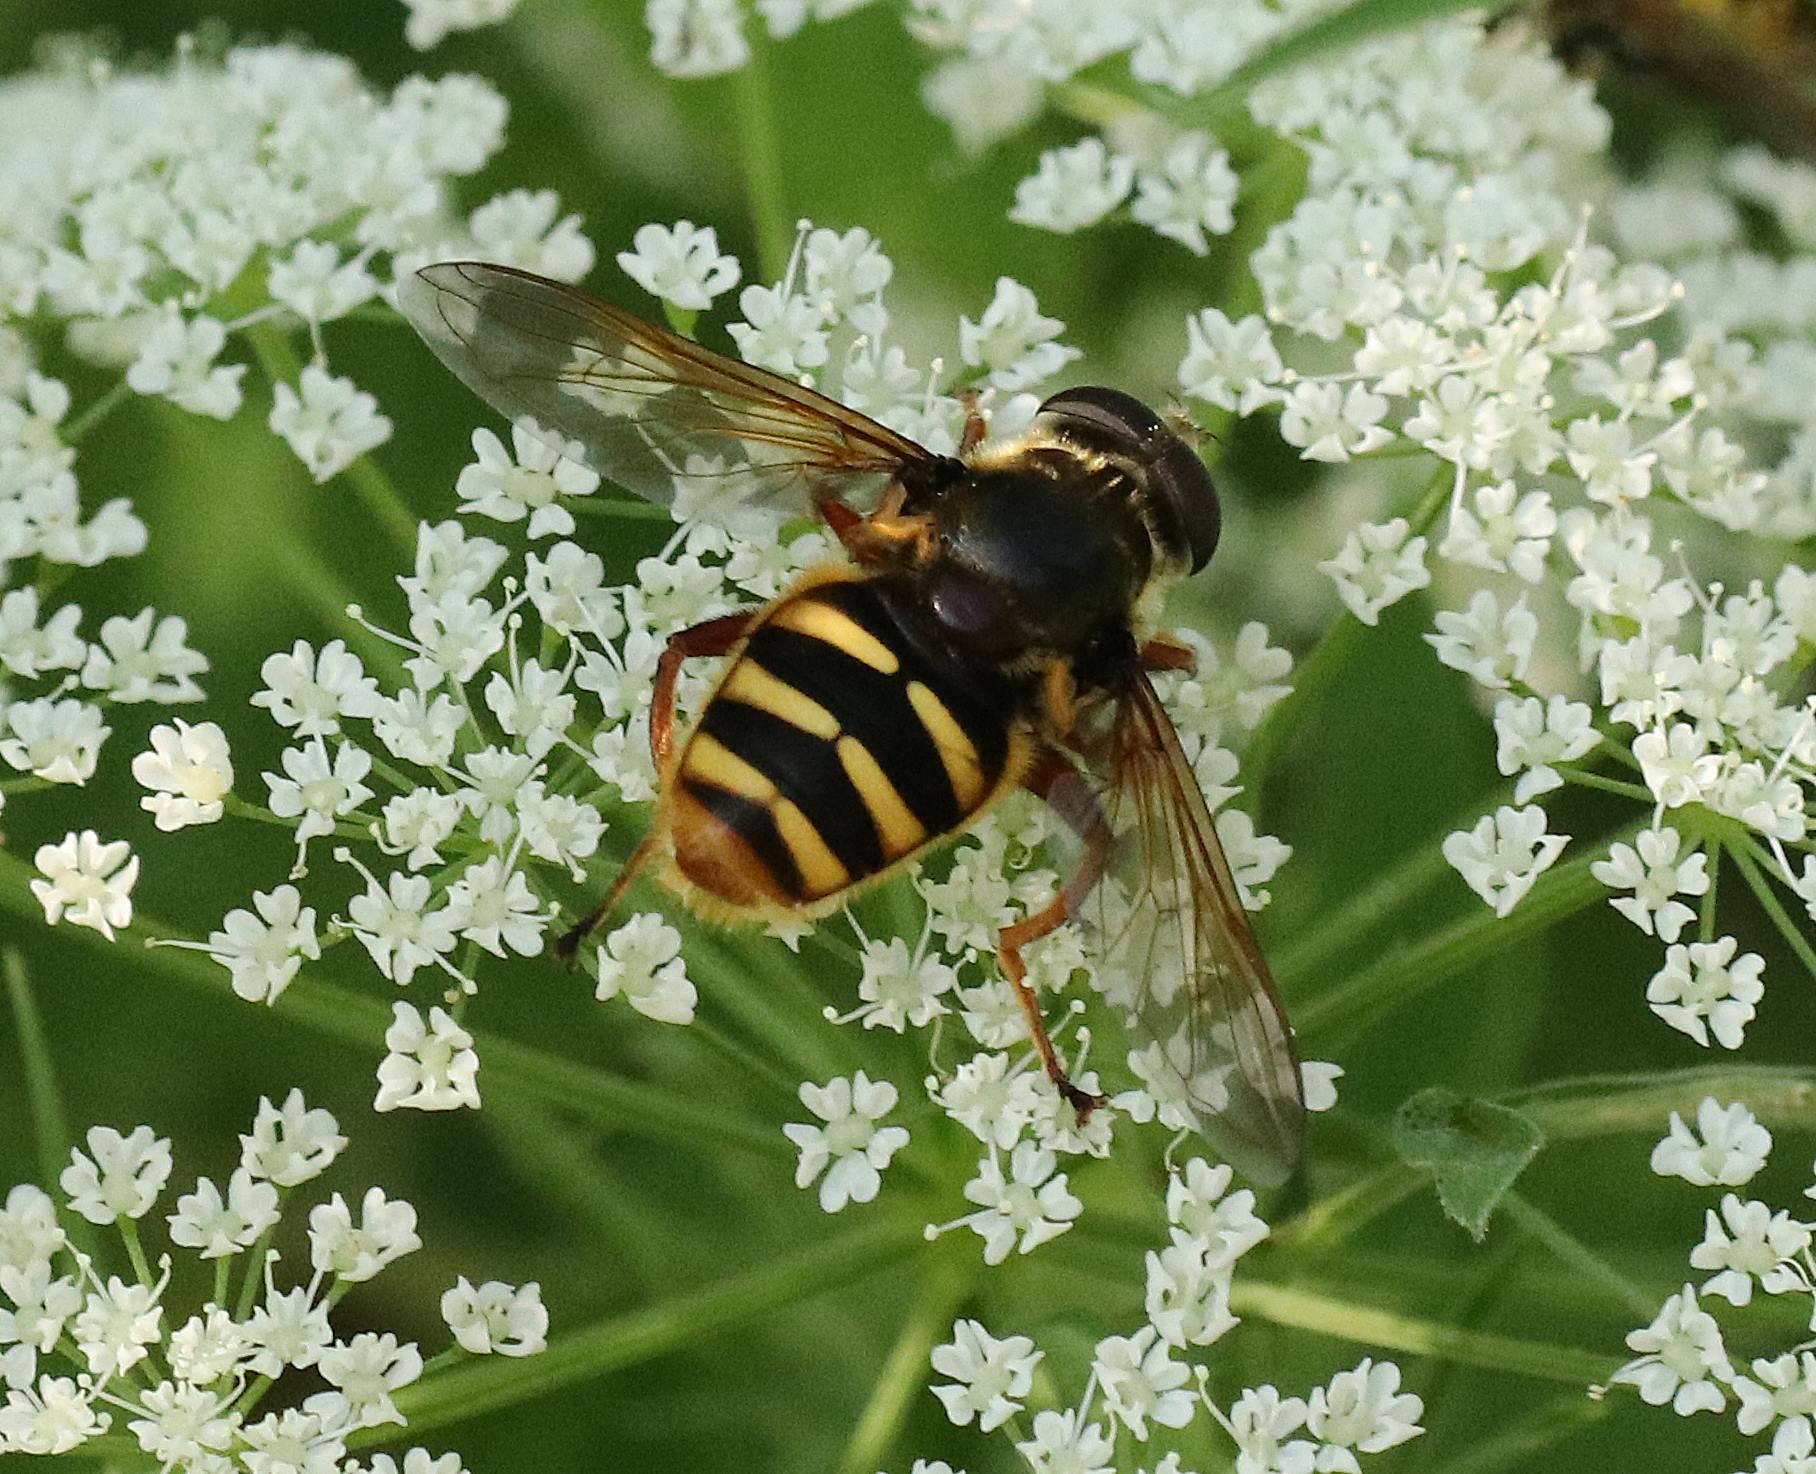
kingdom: Animalia
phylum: Arthropoda
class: Insecta
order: Diptera
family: Syrphidae
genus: Sericomyia
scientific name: Sericomyia silentis
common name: Tørve-silkesvirreflue
